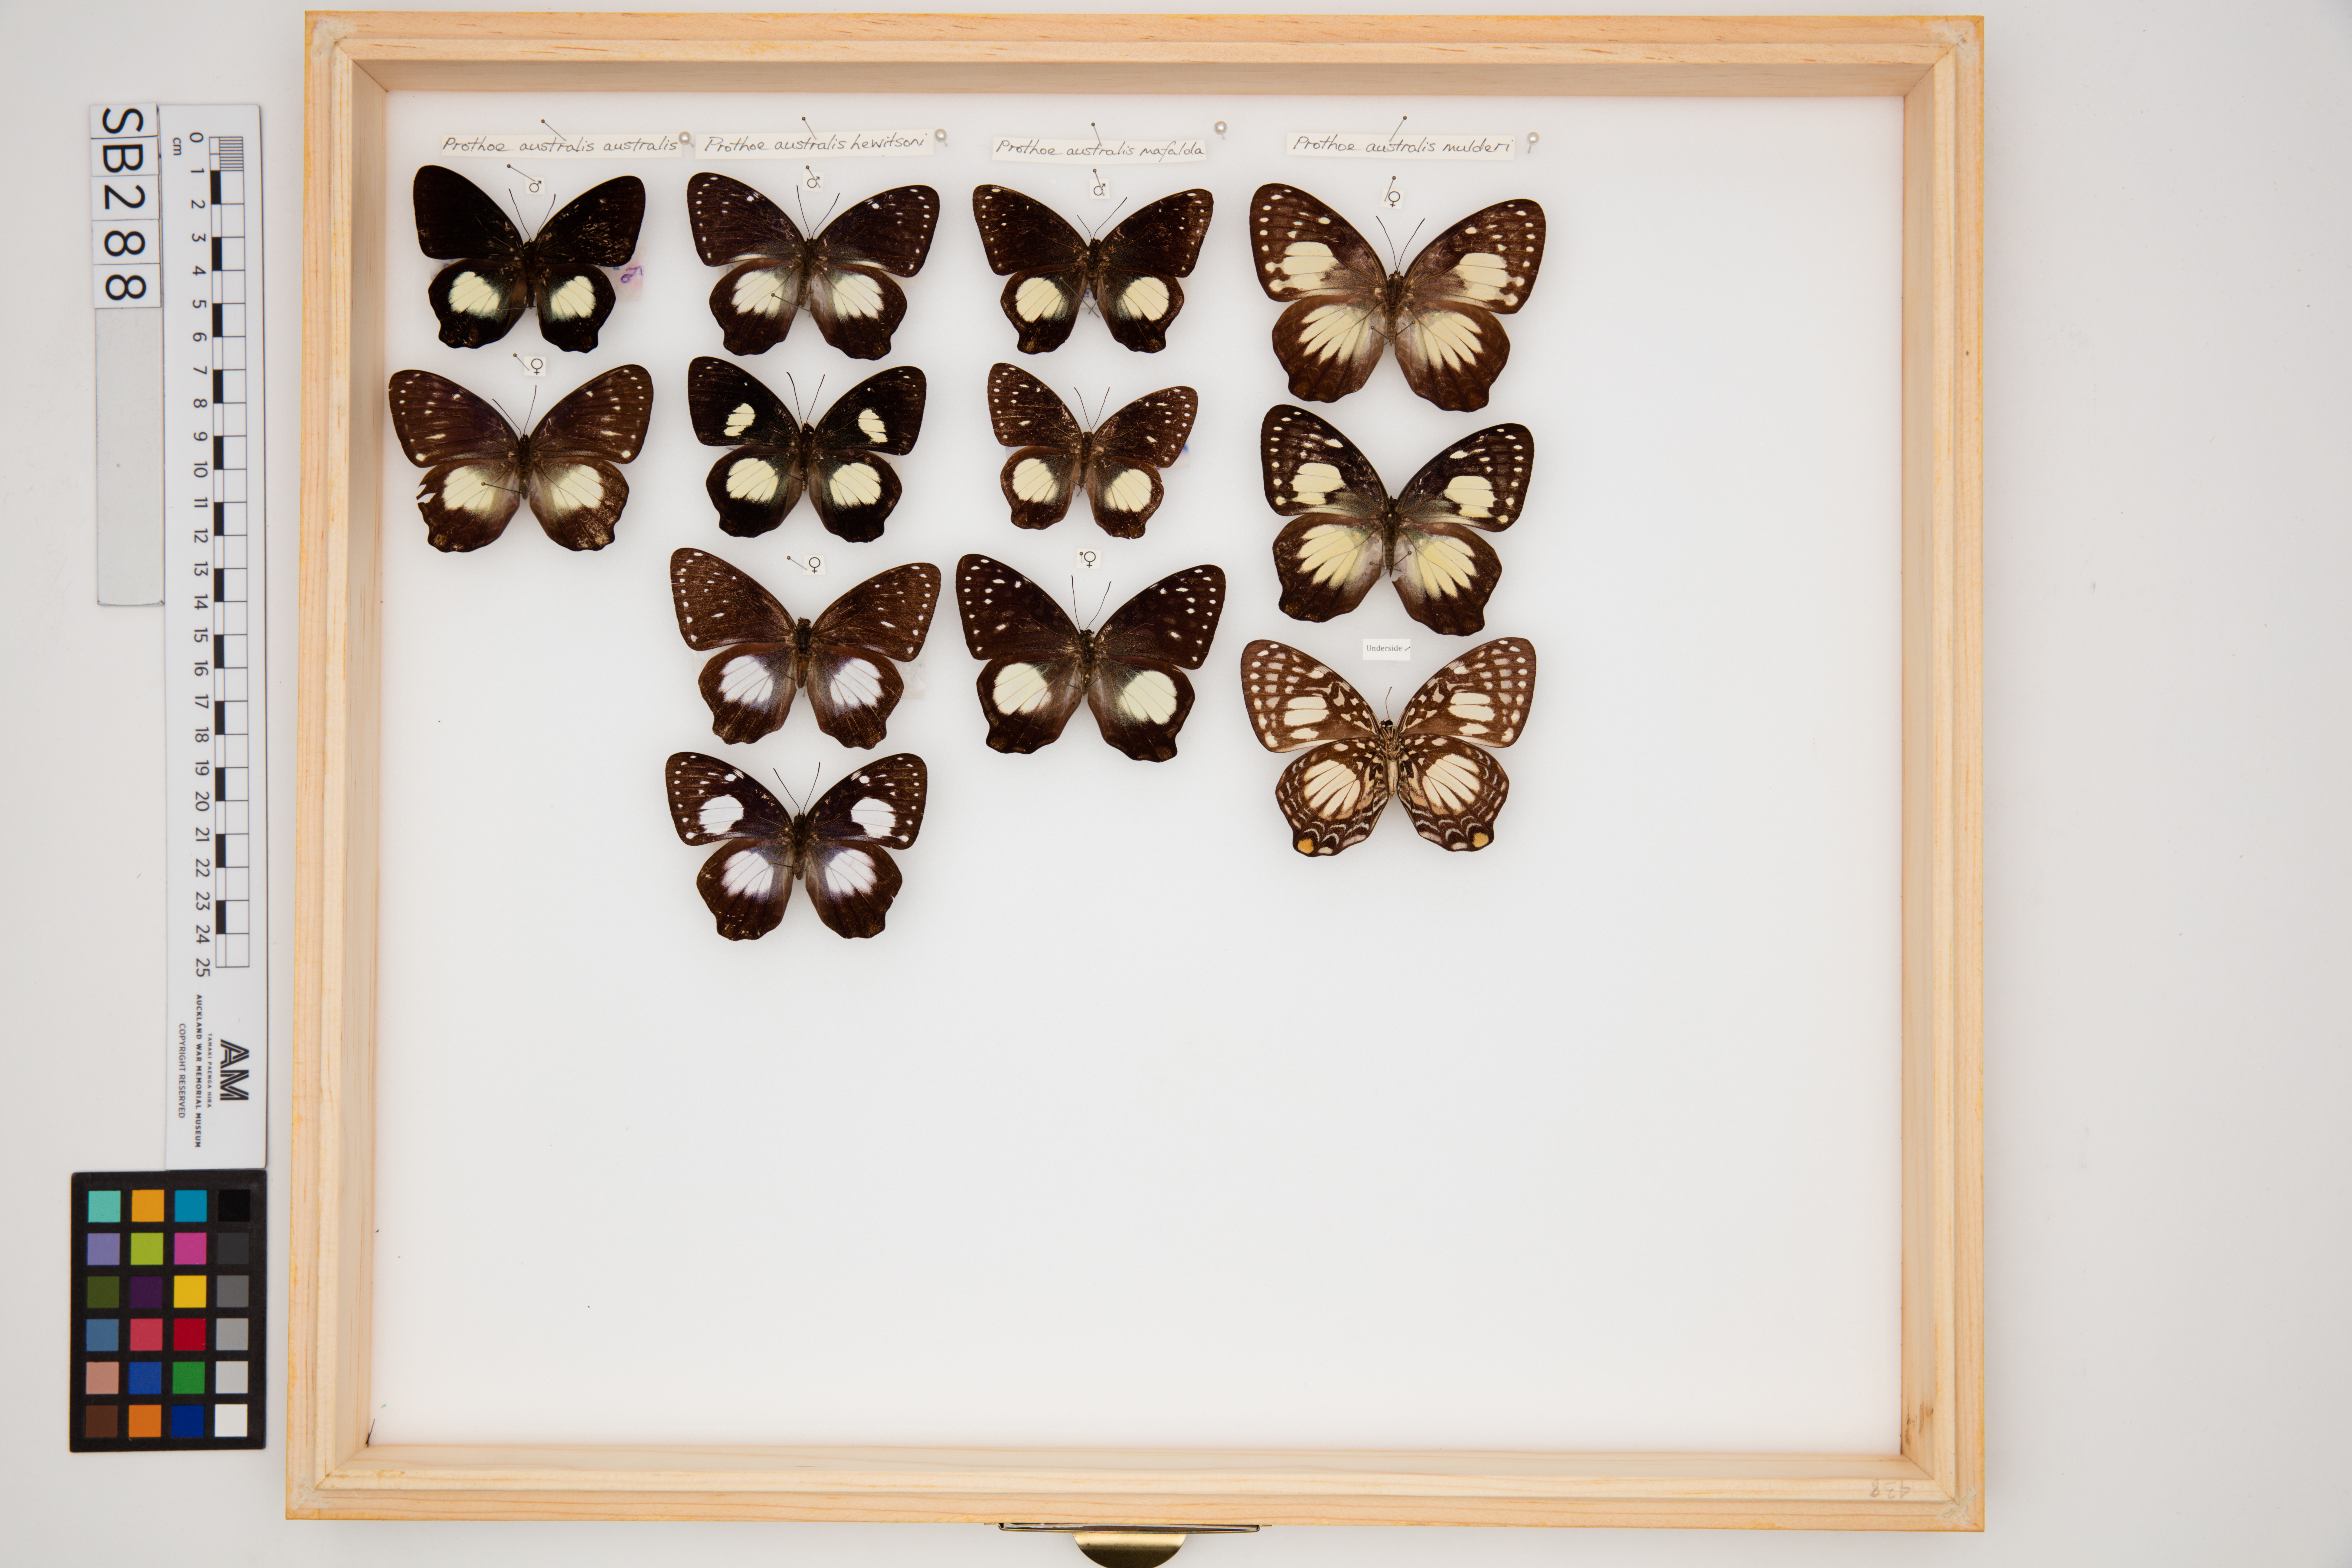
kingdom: Animalia
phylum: Arthropoda
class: Insecta
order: Lepidoptera
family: Nymphalidae
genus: Prothoe
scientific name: Prothoe australis
